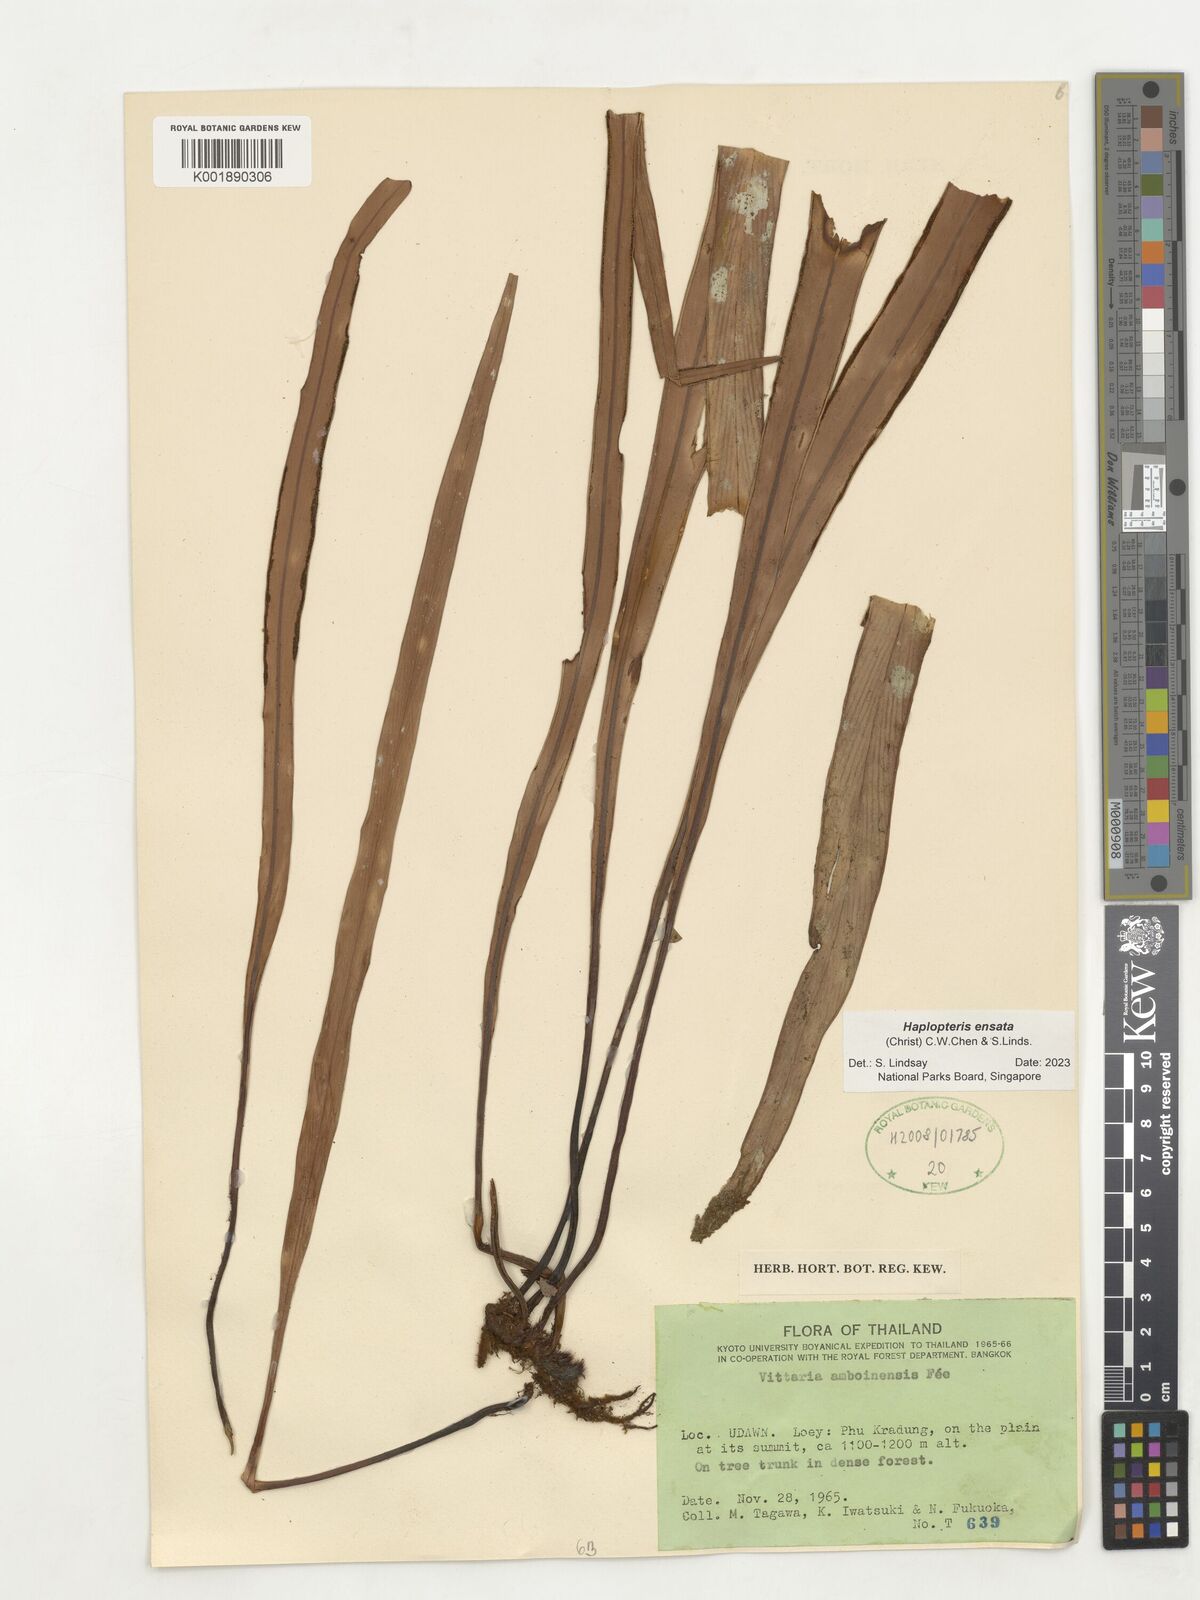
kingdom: Plantae
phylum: Tracheophyta
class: Polypodiopsida
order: Polypodiales
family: Pteridaceae
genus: Haplopteris
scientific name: Haplopteris ensata
